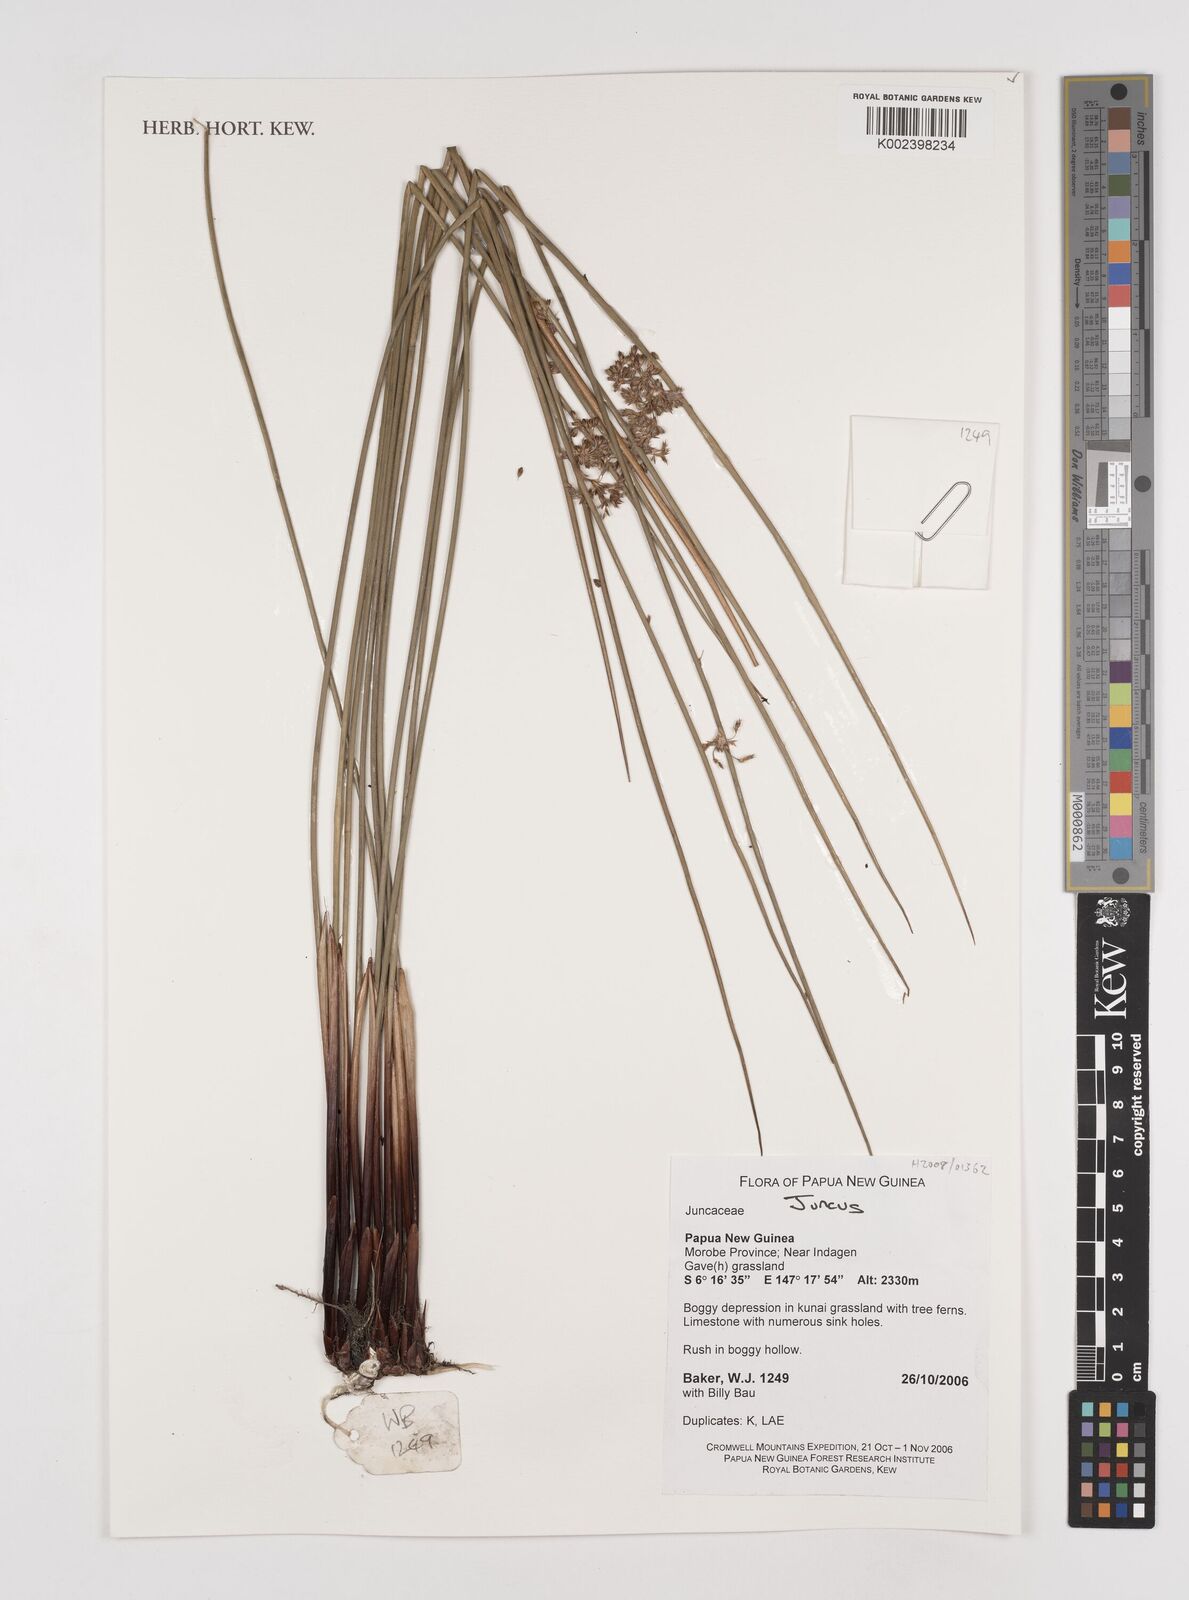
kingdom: Plantae
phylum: Tracheophyta
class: Liliopsida
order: Poales
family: Juncaceae
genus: Juncus
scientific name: Juncus
